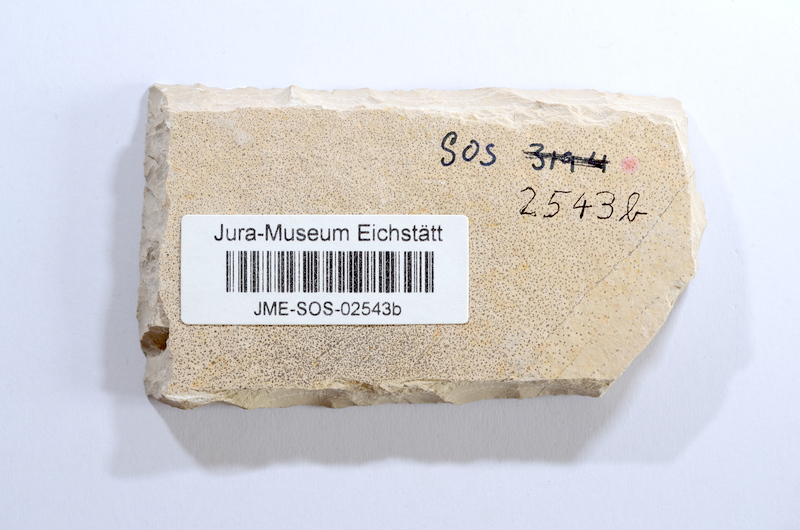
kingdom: Animalia
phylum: Chordata
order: Elopiformes
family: Anaethalionidae
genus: Anaethalion
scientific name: Anaethalion angustissimus
